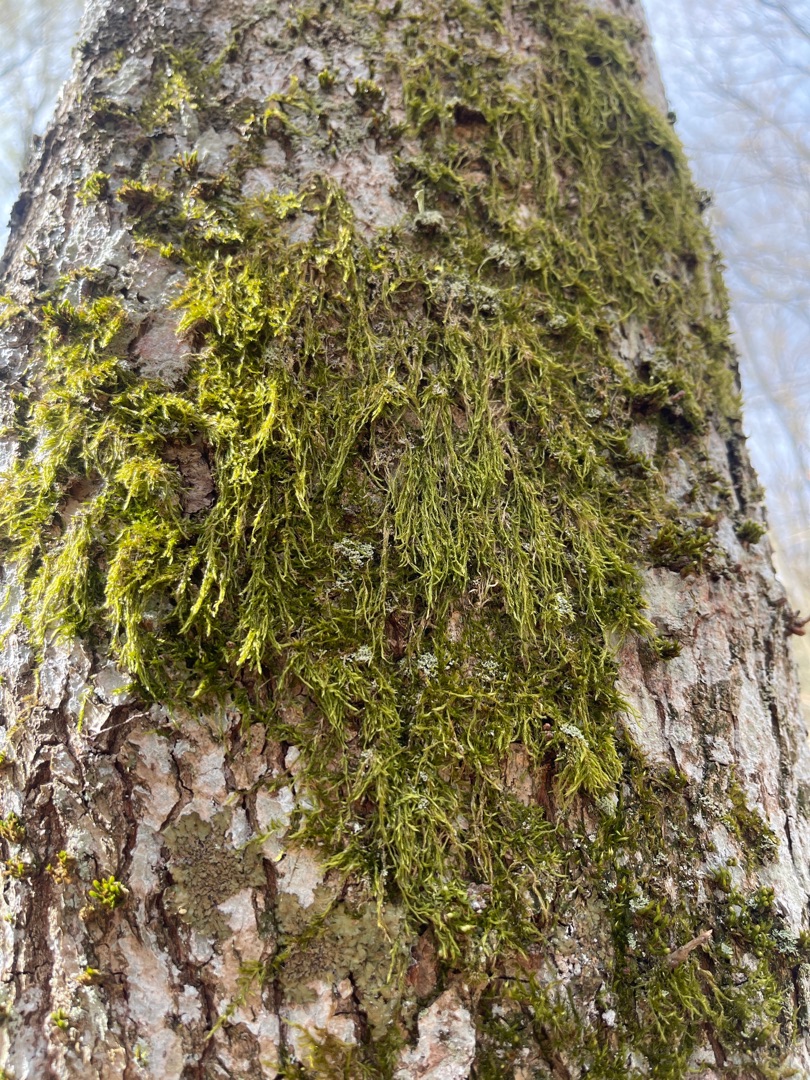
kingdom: Plantae
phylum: Bryophyta
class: Bryopsida
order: Hypnales
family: Hypnaceae
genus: Hypnum
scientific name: Hypnum
